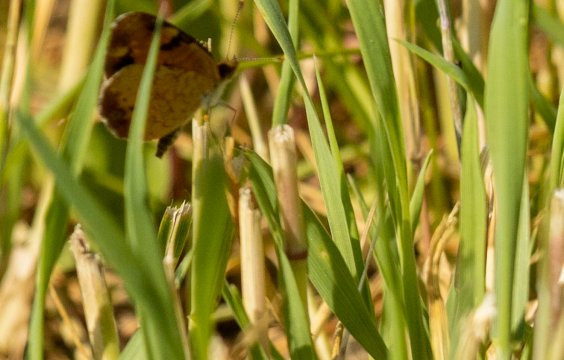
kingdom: Animalia
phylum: Arthropoda
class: Insecta
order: Lepidoptera
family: Nymphalidae
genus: Phyciodes
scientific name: Phyciodes tharos
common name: Pearl Crescent
